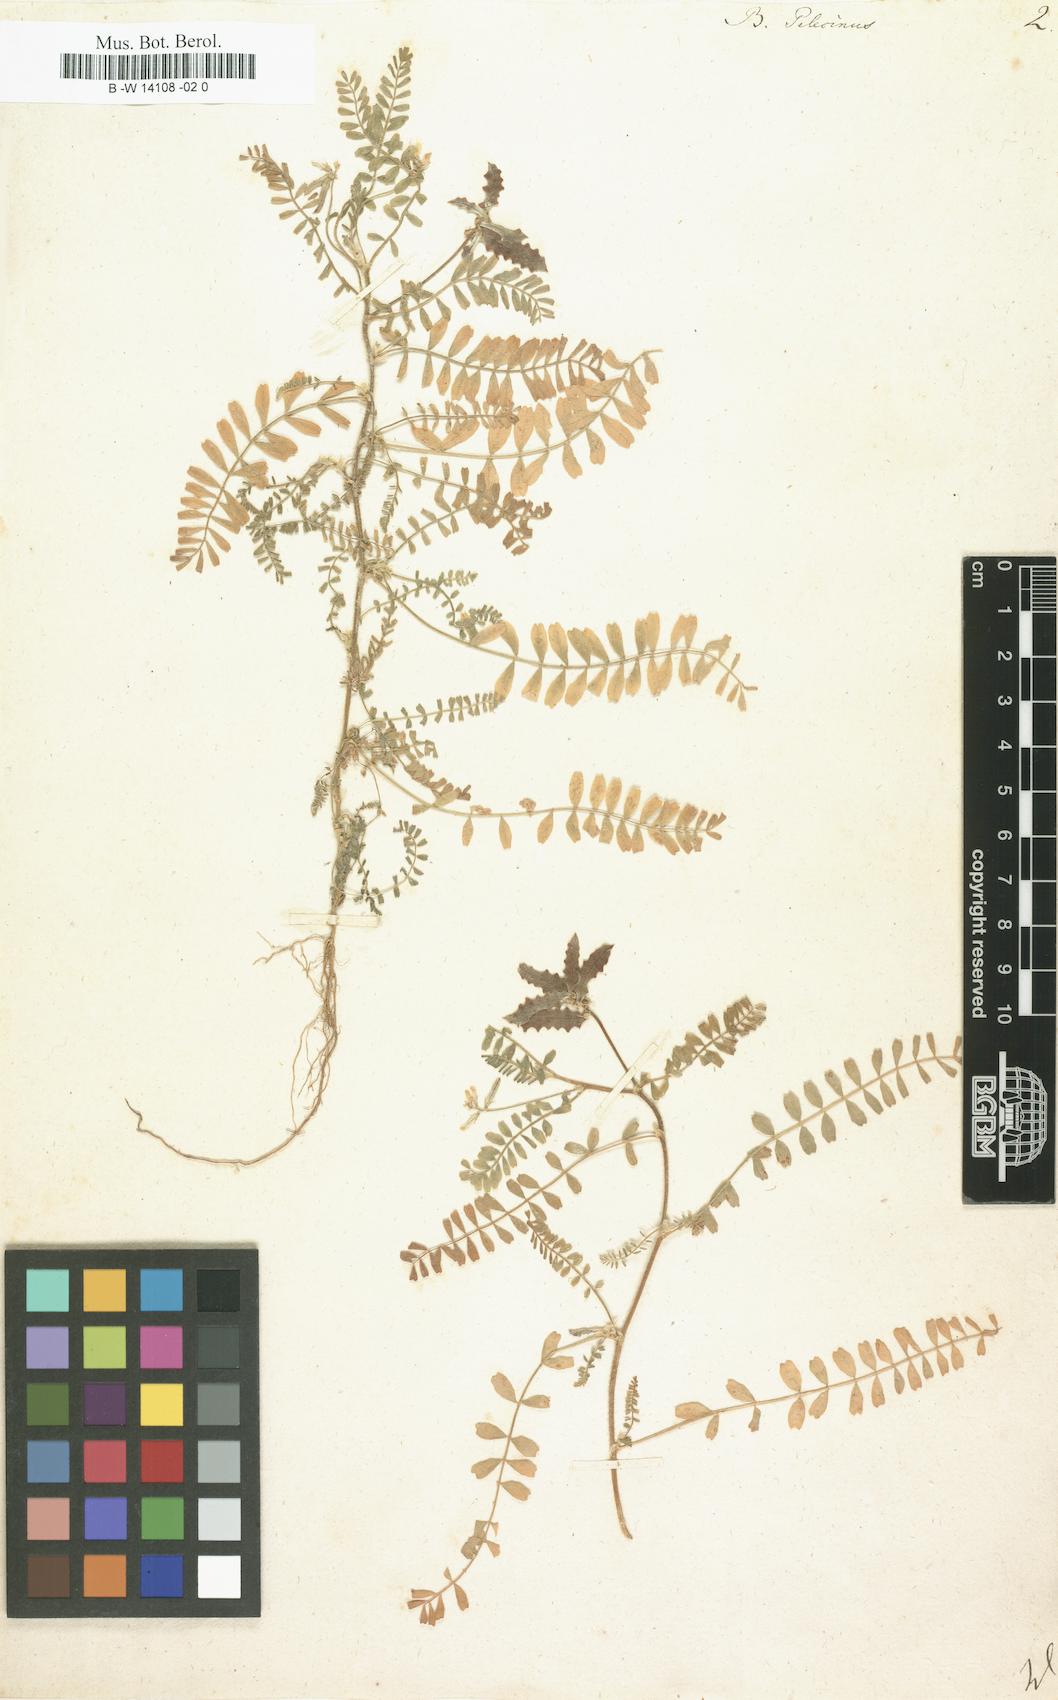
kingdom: Plantae
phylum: Tracheophyta
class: Magnoliopsida
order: Fabales
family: Fabaceae
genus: Biserrula
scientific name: Biserrula pelecinus
